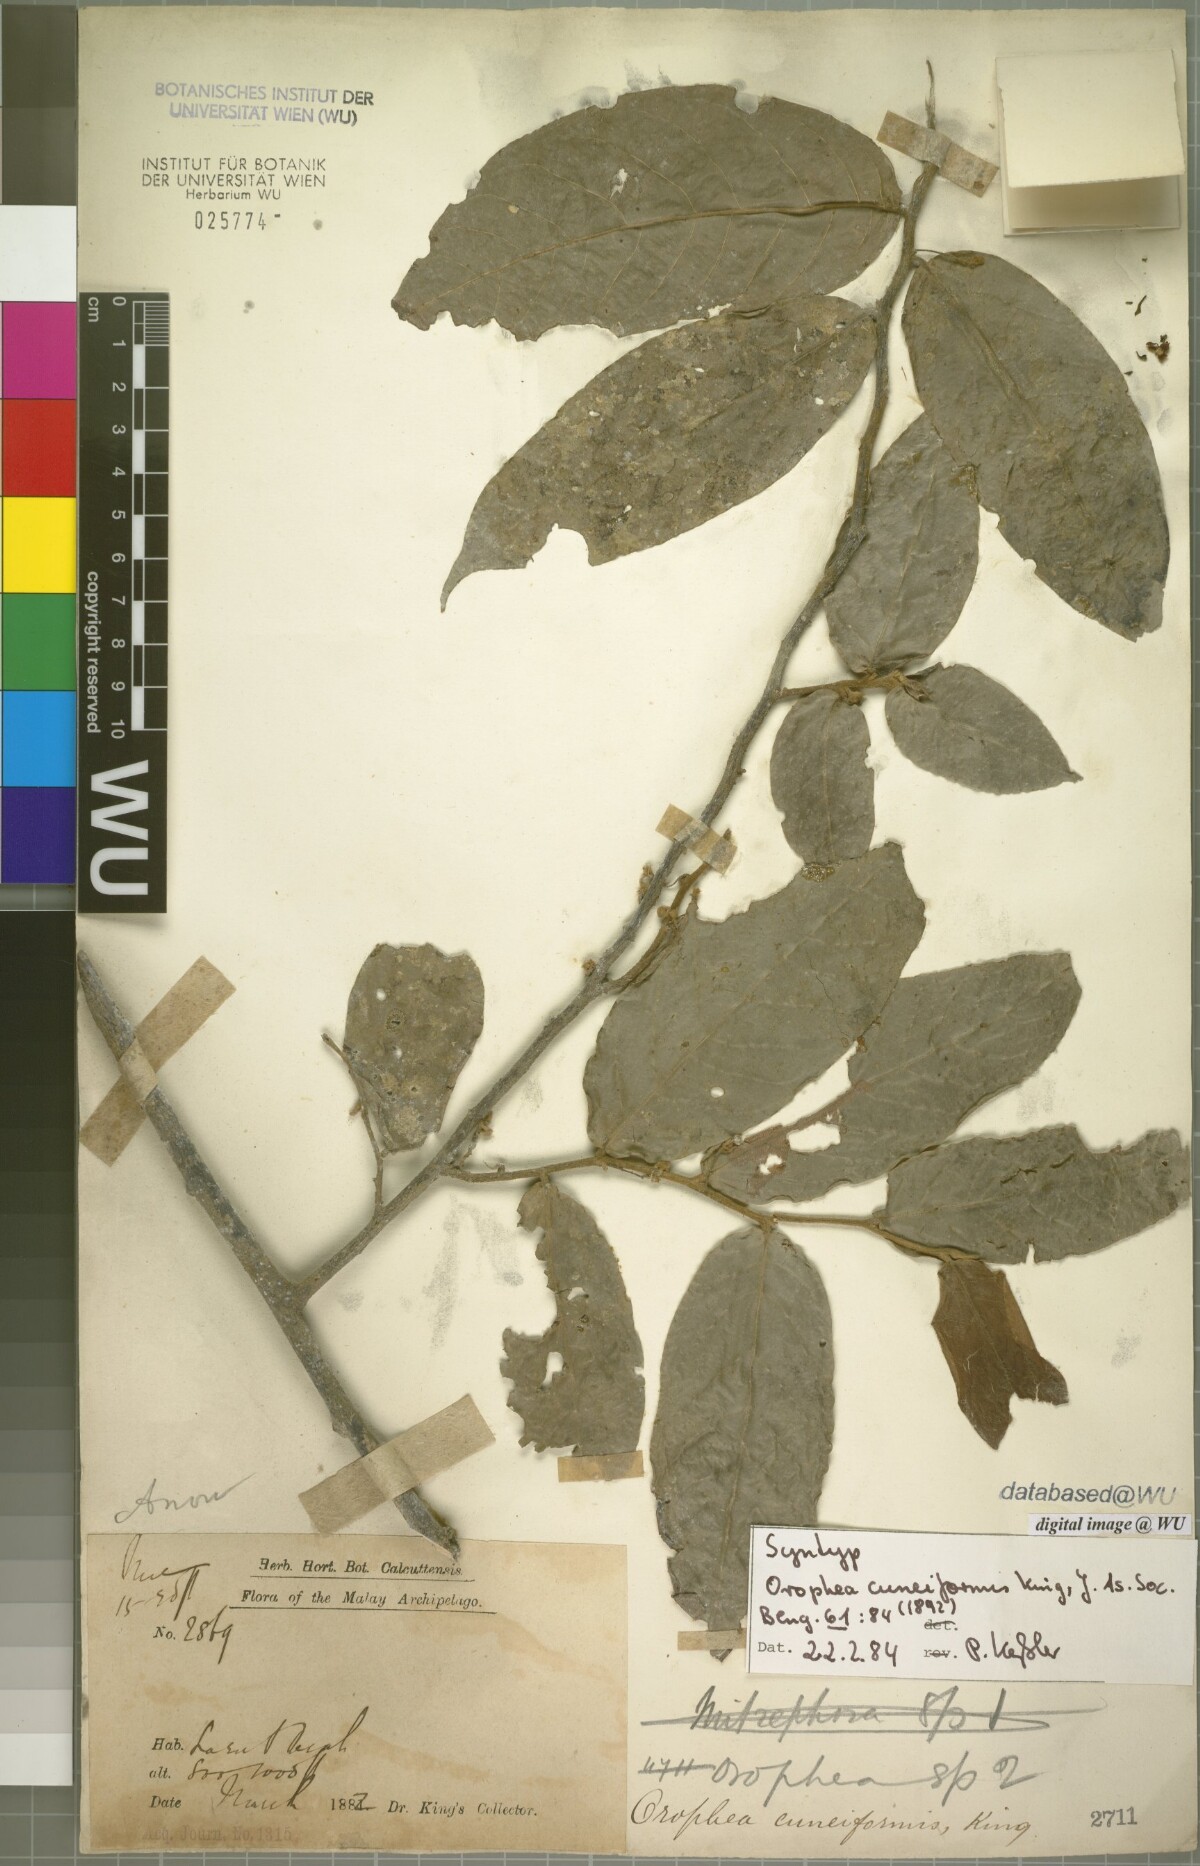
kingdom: Plantae
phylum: Tracheophyta
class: Magnoliopsida
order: Magnoliales
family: Annonaceae
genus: Orophea
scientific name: Orophea cuneiformis
